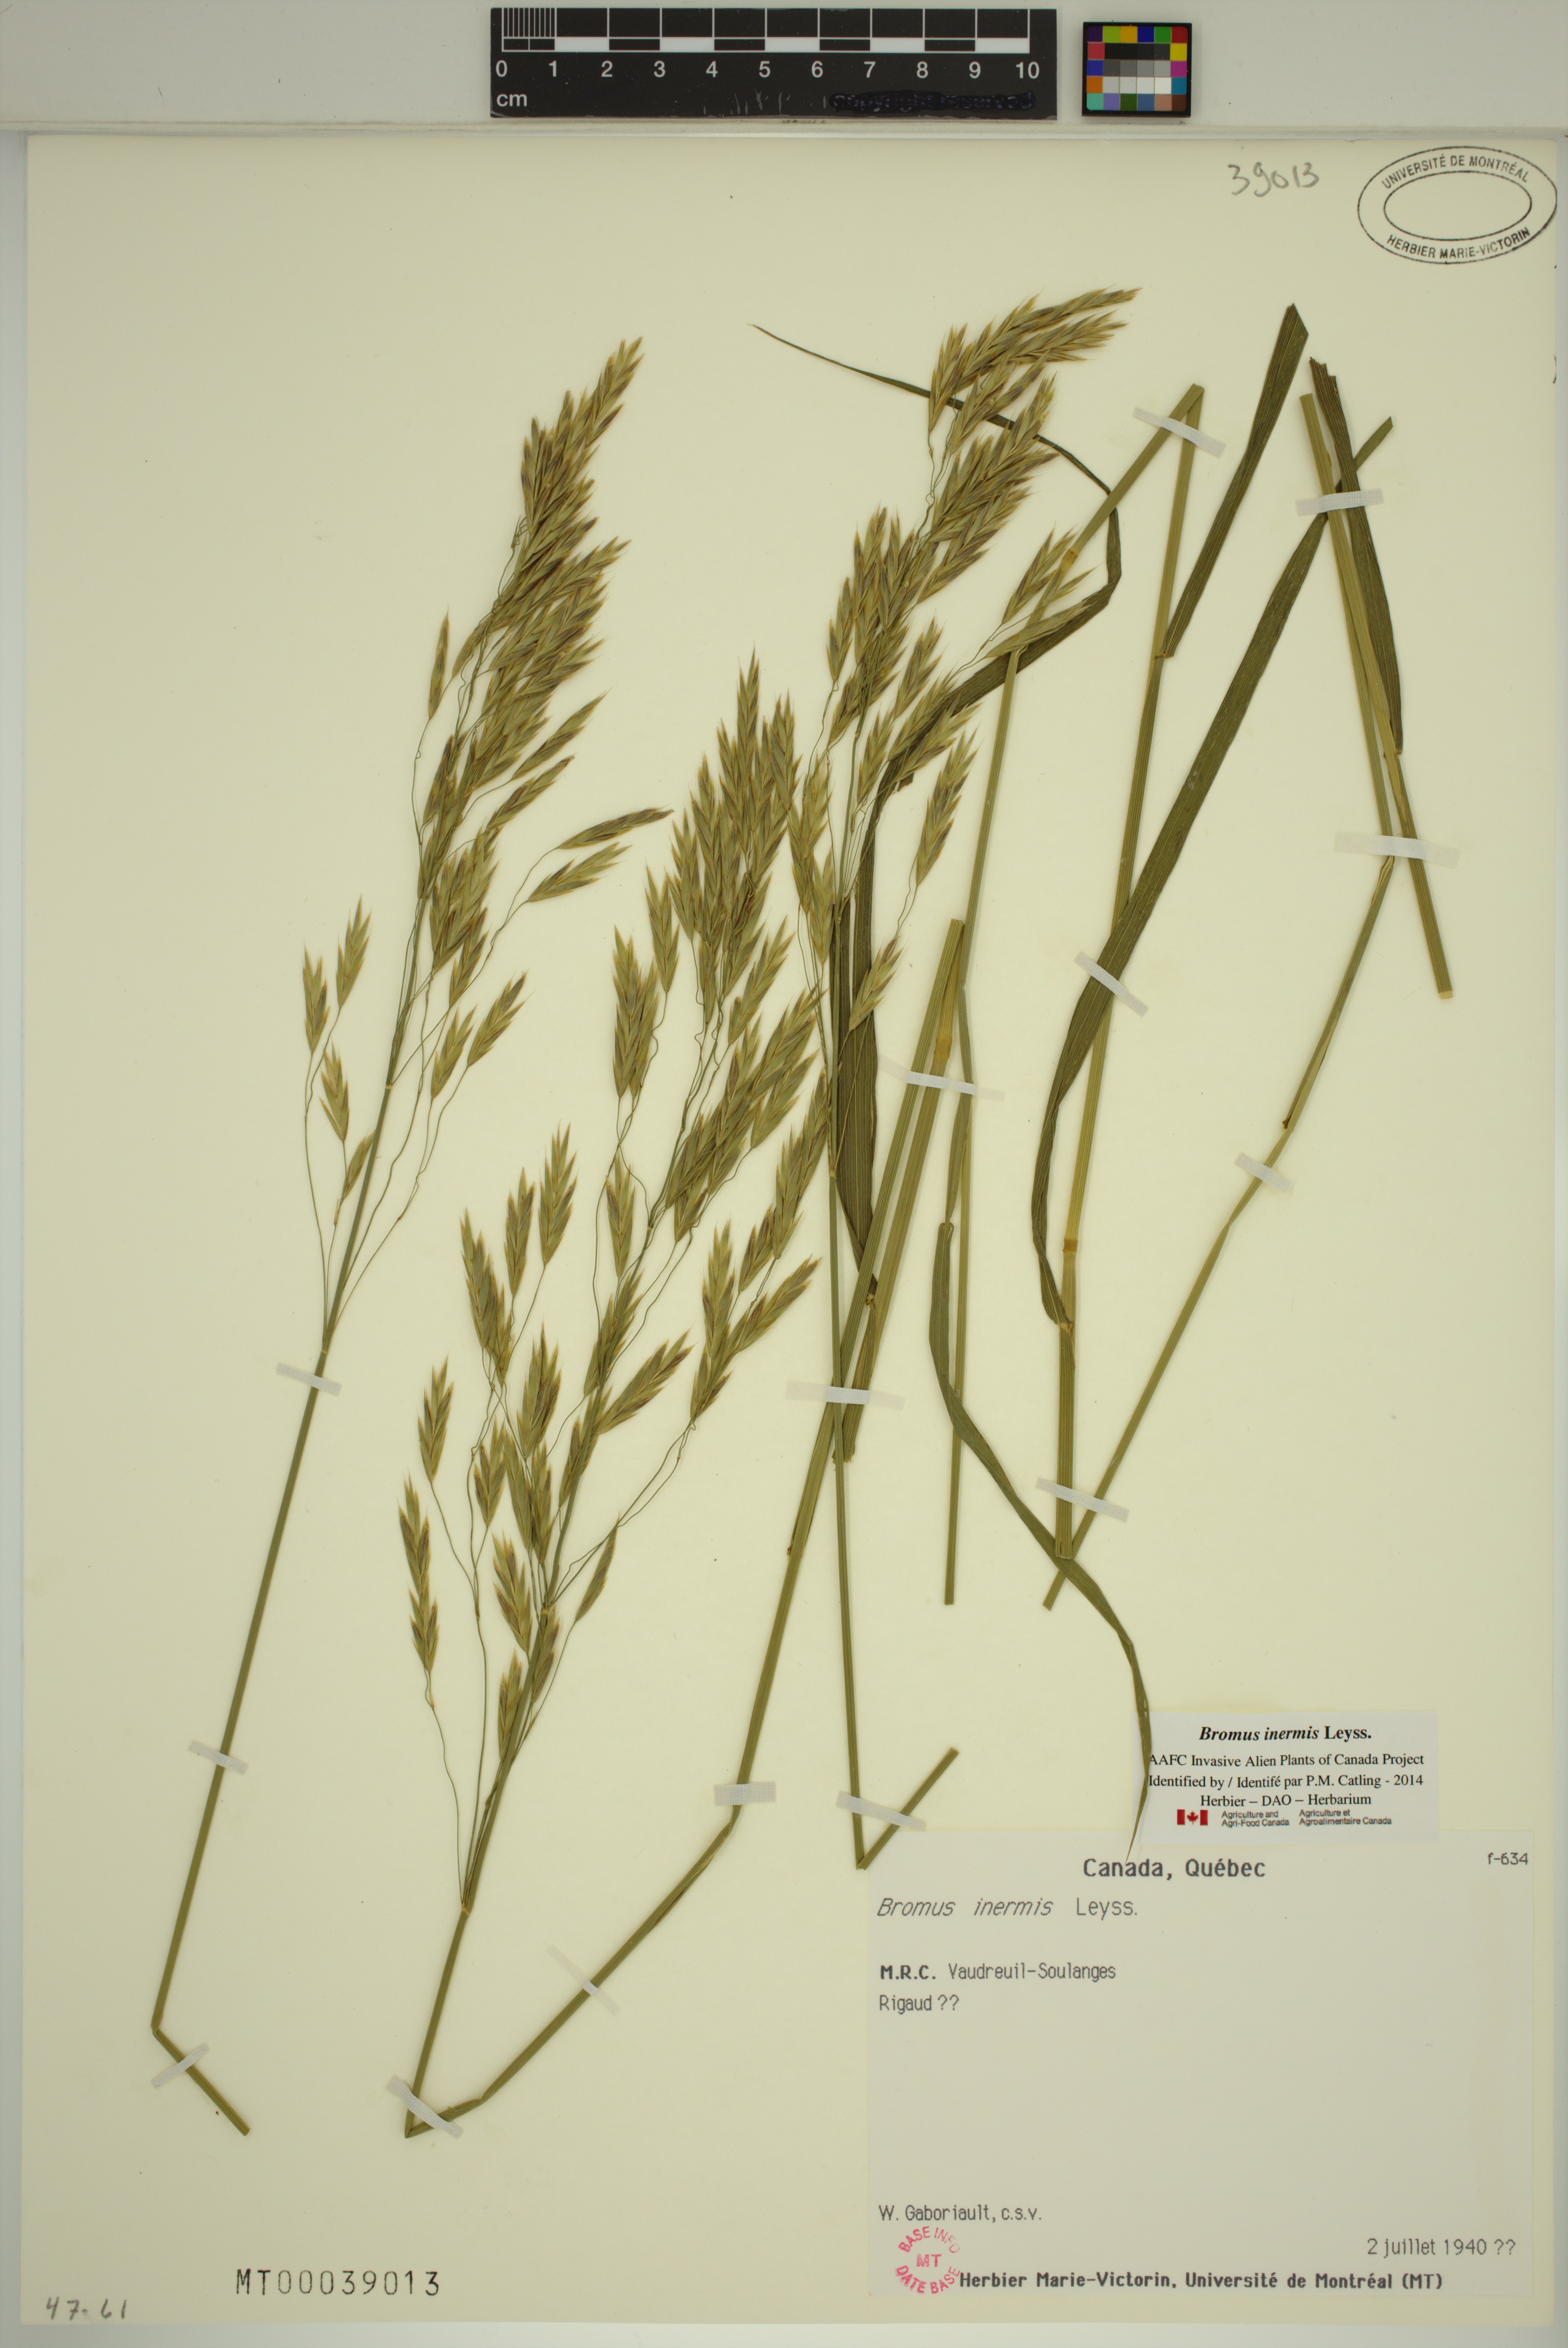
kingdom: Plantae
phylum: Tracheophyta
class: Liliopsida
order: Poales
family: Poaceae
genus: Bromus
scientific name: Bromus inermis
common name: Smooth brome
